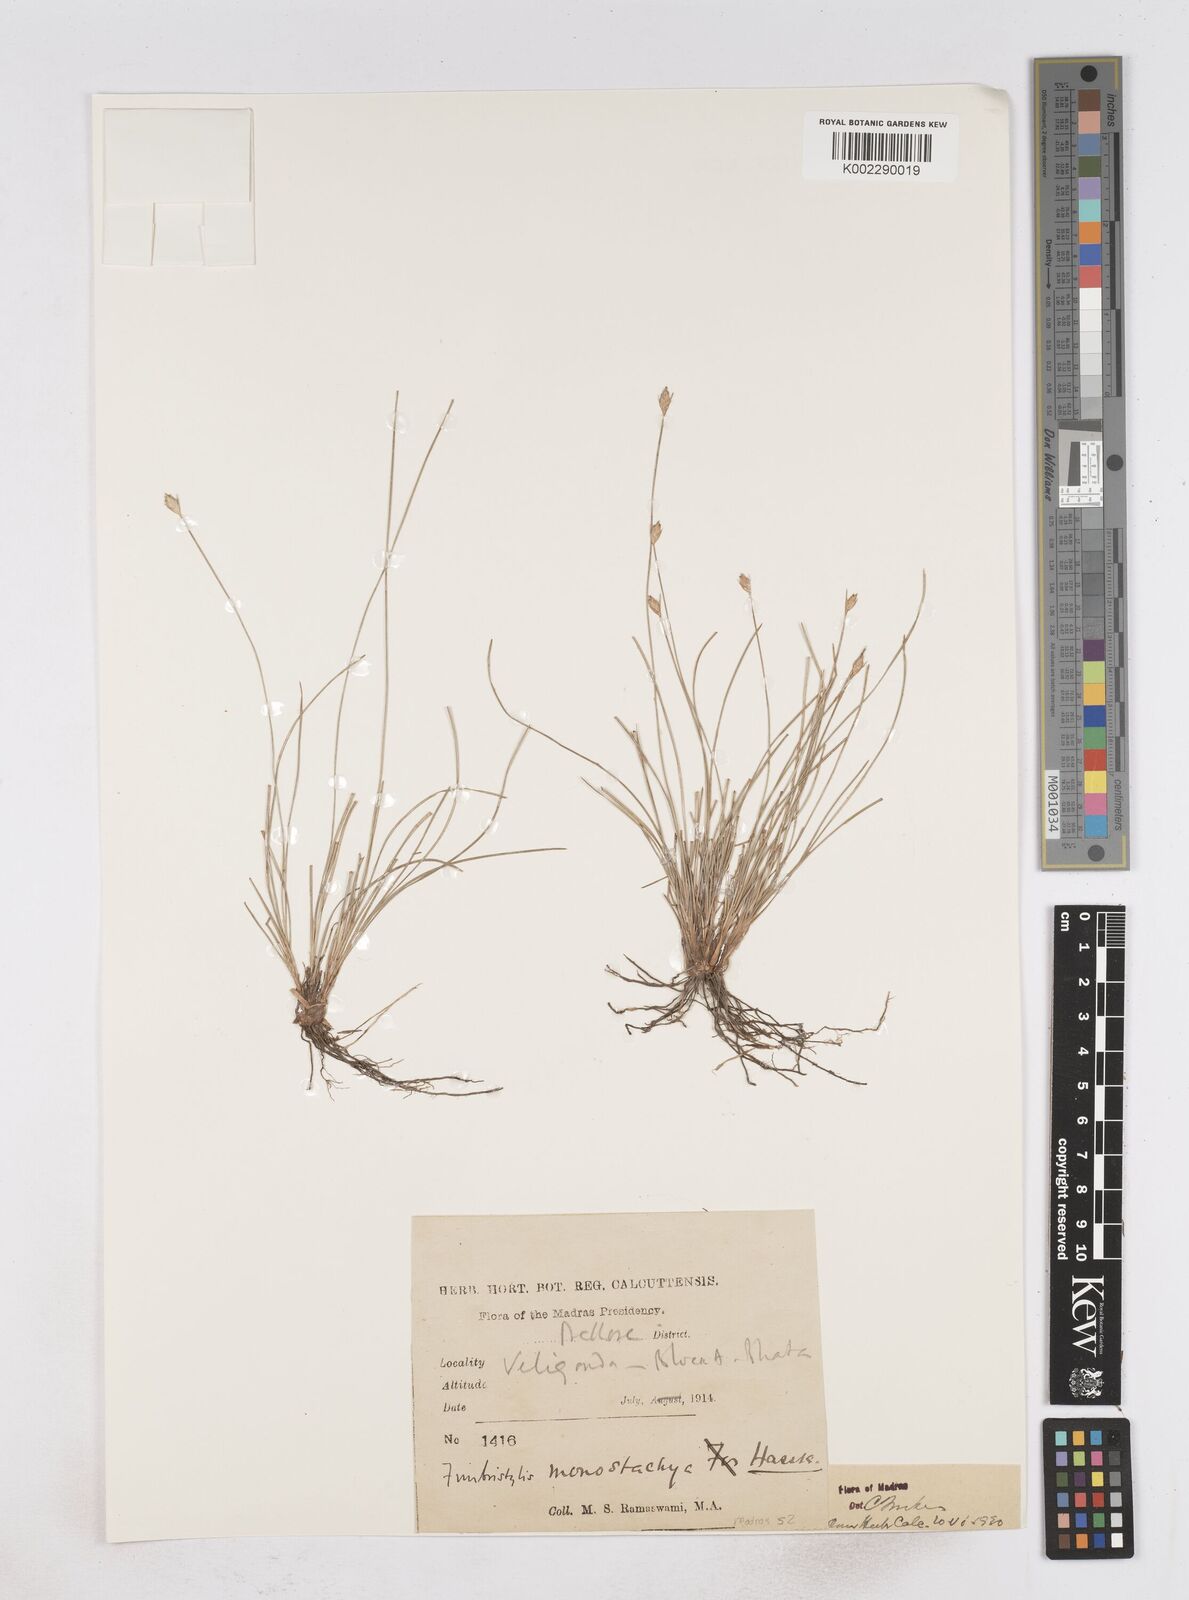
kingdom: Plantae
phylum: Tracheophyta
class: Liliopsida
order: Poales
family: Cyperaceae
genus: Abildgaardia
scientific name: Abildgaardia ovata
